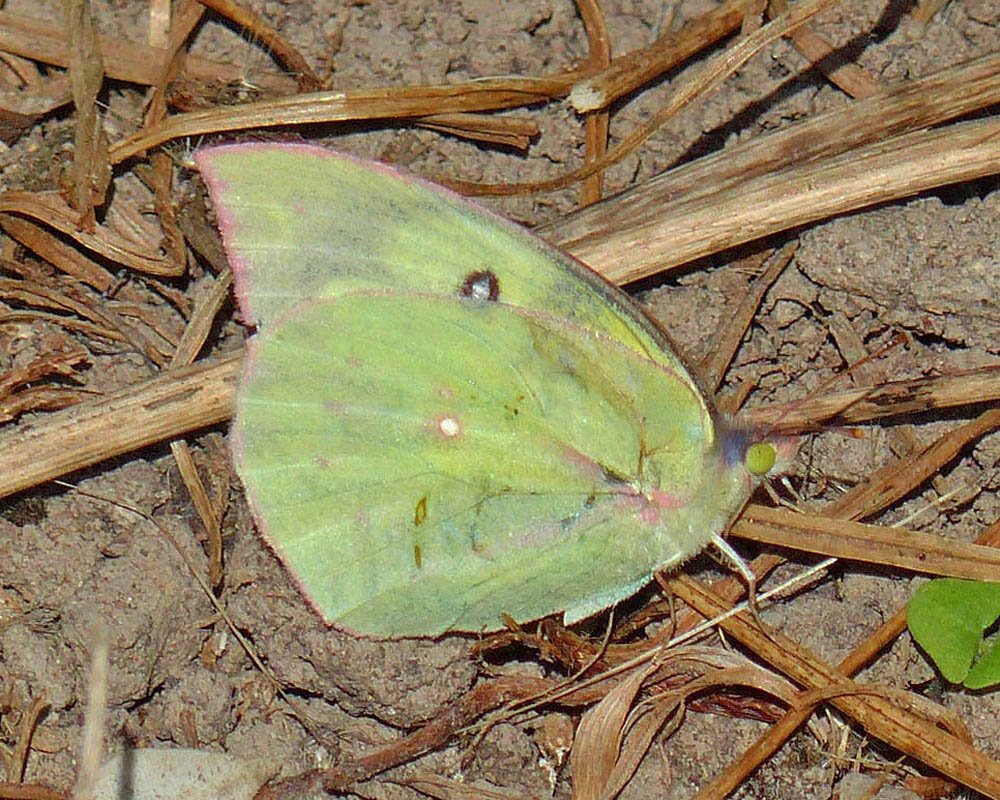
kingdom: Animalia
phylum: Arthropoda
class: Insecta
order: Lepidoptera
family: Pieridae
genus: Zerene
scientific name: Zerene cesonia
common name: Southern Dogface
